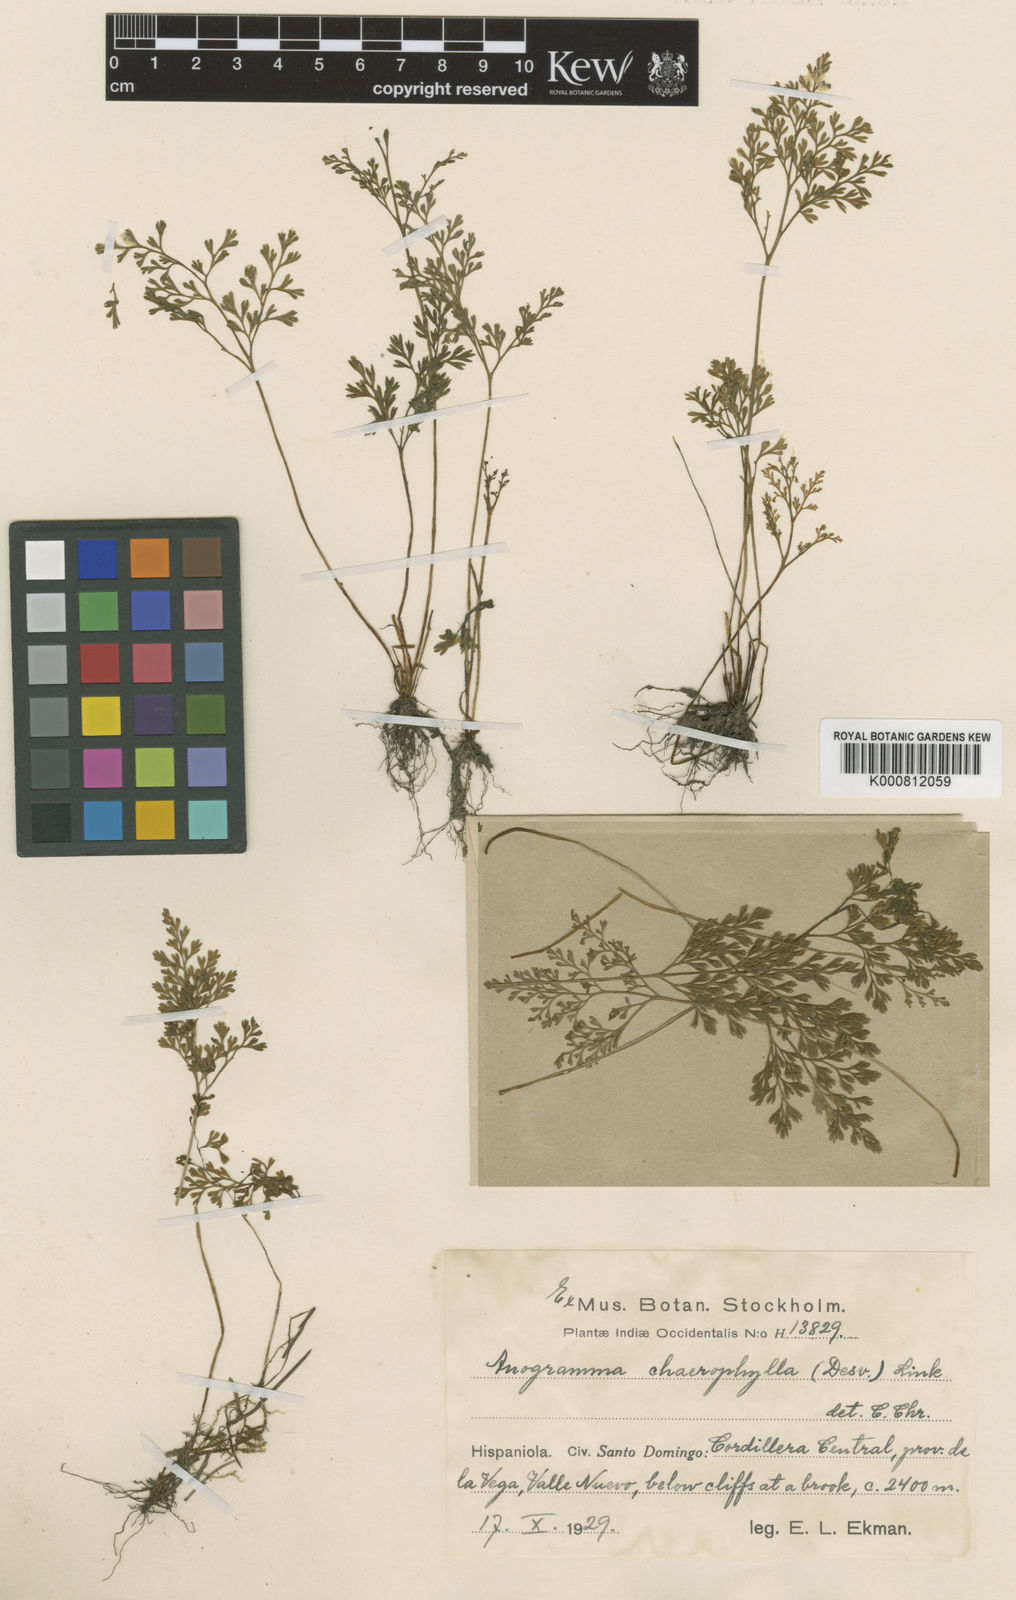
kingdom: Plantae
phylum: Tracheophyta
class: Polypodiopsida
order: Polypodiales
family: Pteridaceae
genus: Gastoniella
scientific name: Gastoniella chaerophylla
